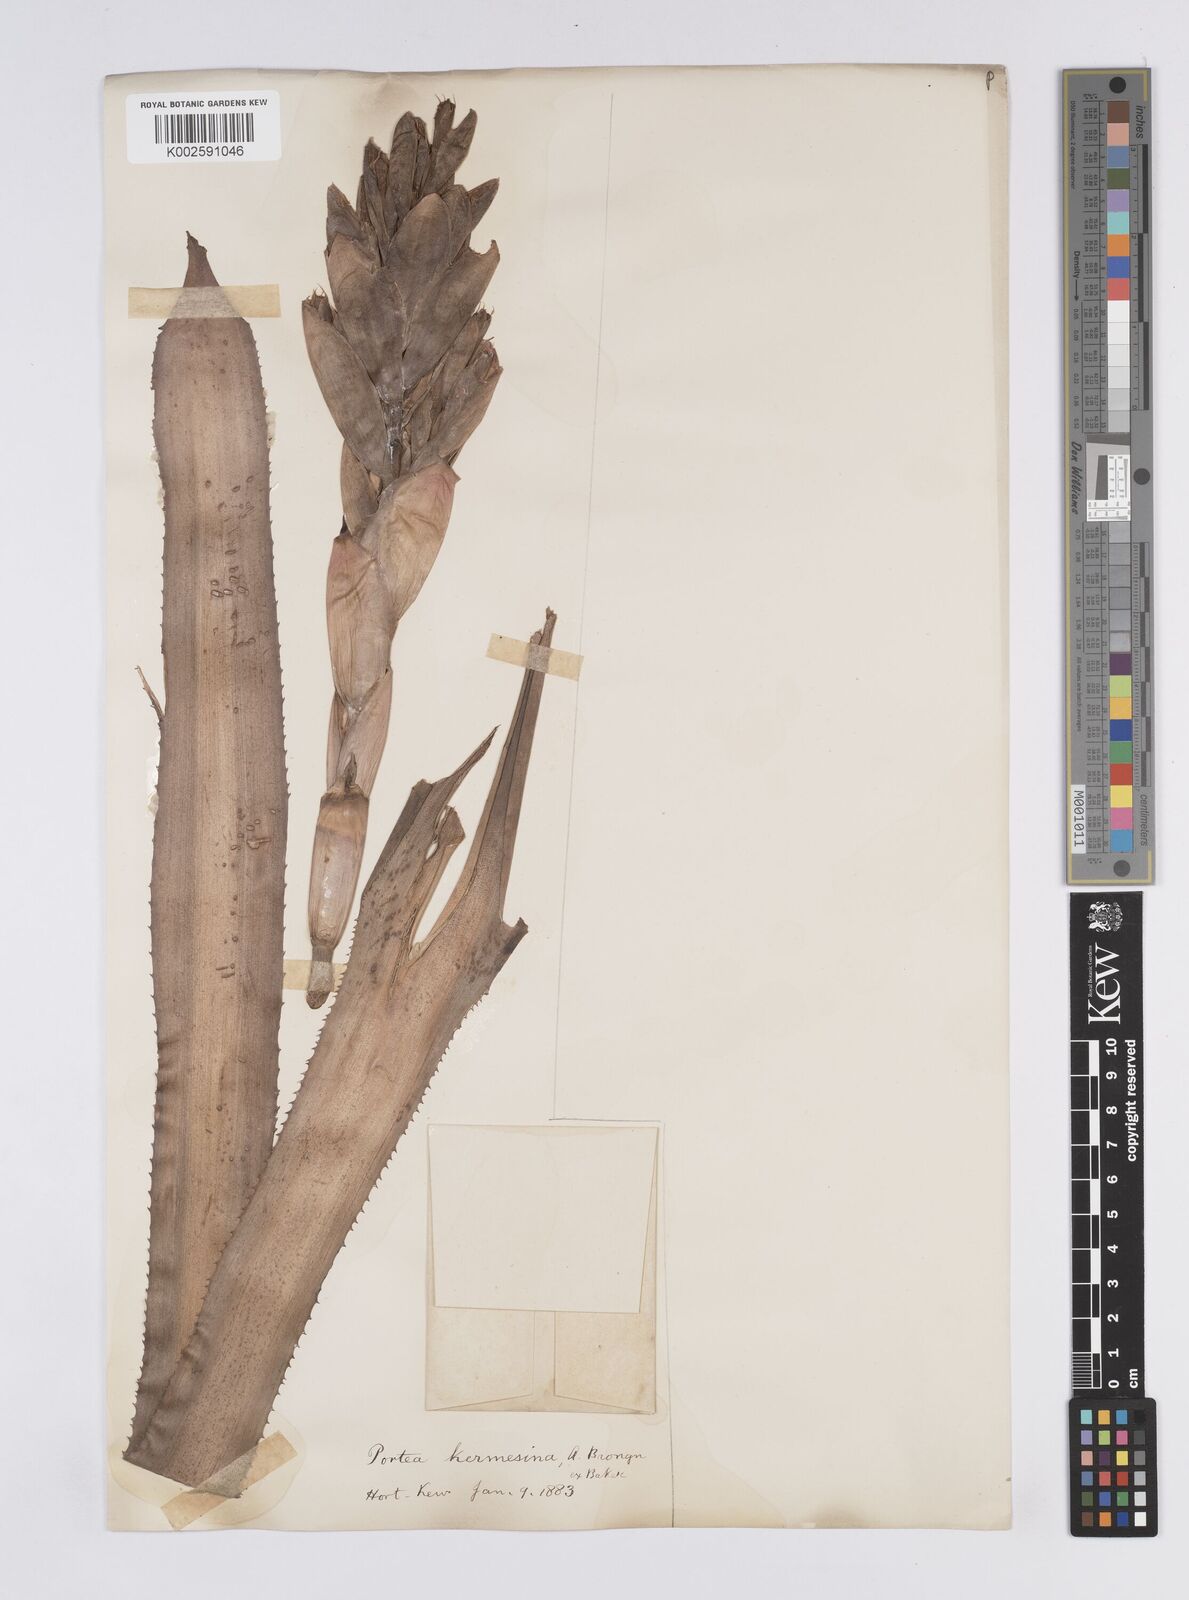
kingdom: Plantae
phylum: Tracheophyta
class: Liliopsida
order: Poales
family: Bromeliaceae
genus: Portea
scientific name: Portea kermesina
